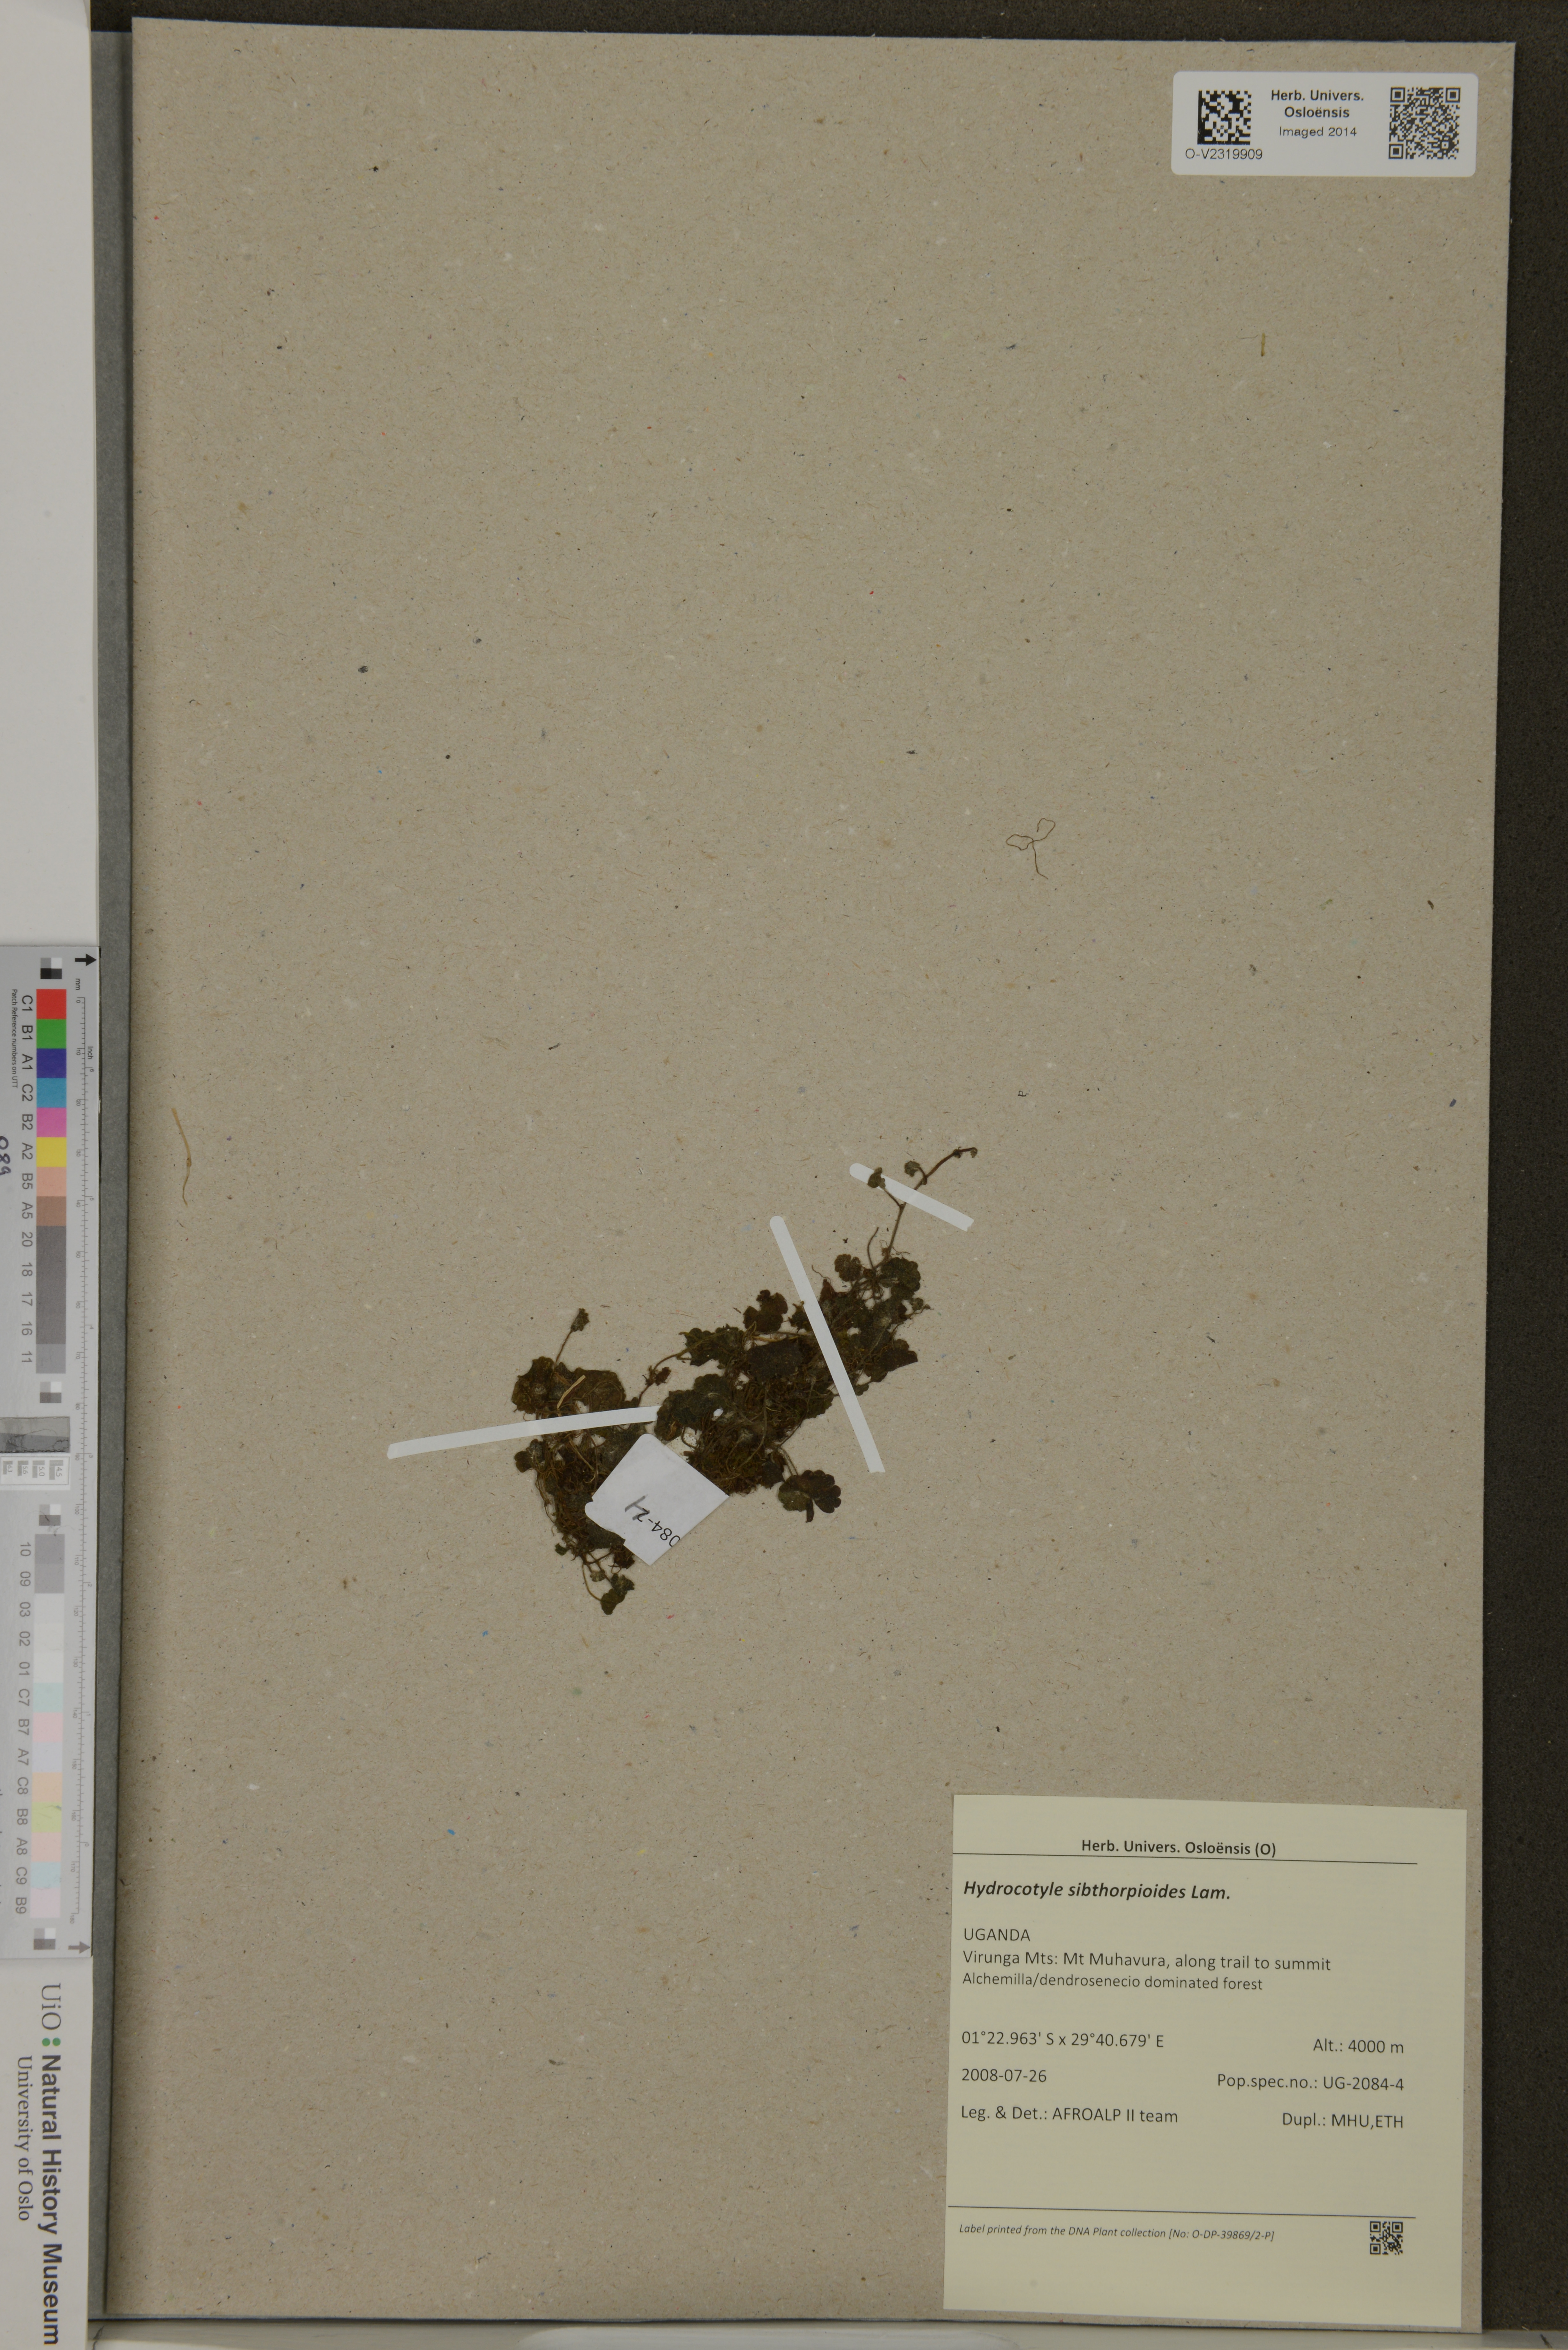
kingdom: Plantae
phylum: Tracheophyta
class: Magnoliopsida
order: Apiales
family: Araliaceae
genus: Hydrocotyle
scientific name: Hydrocotyle sibthorpioides
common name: Lawn marshpennywort
